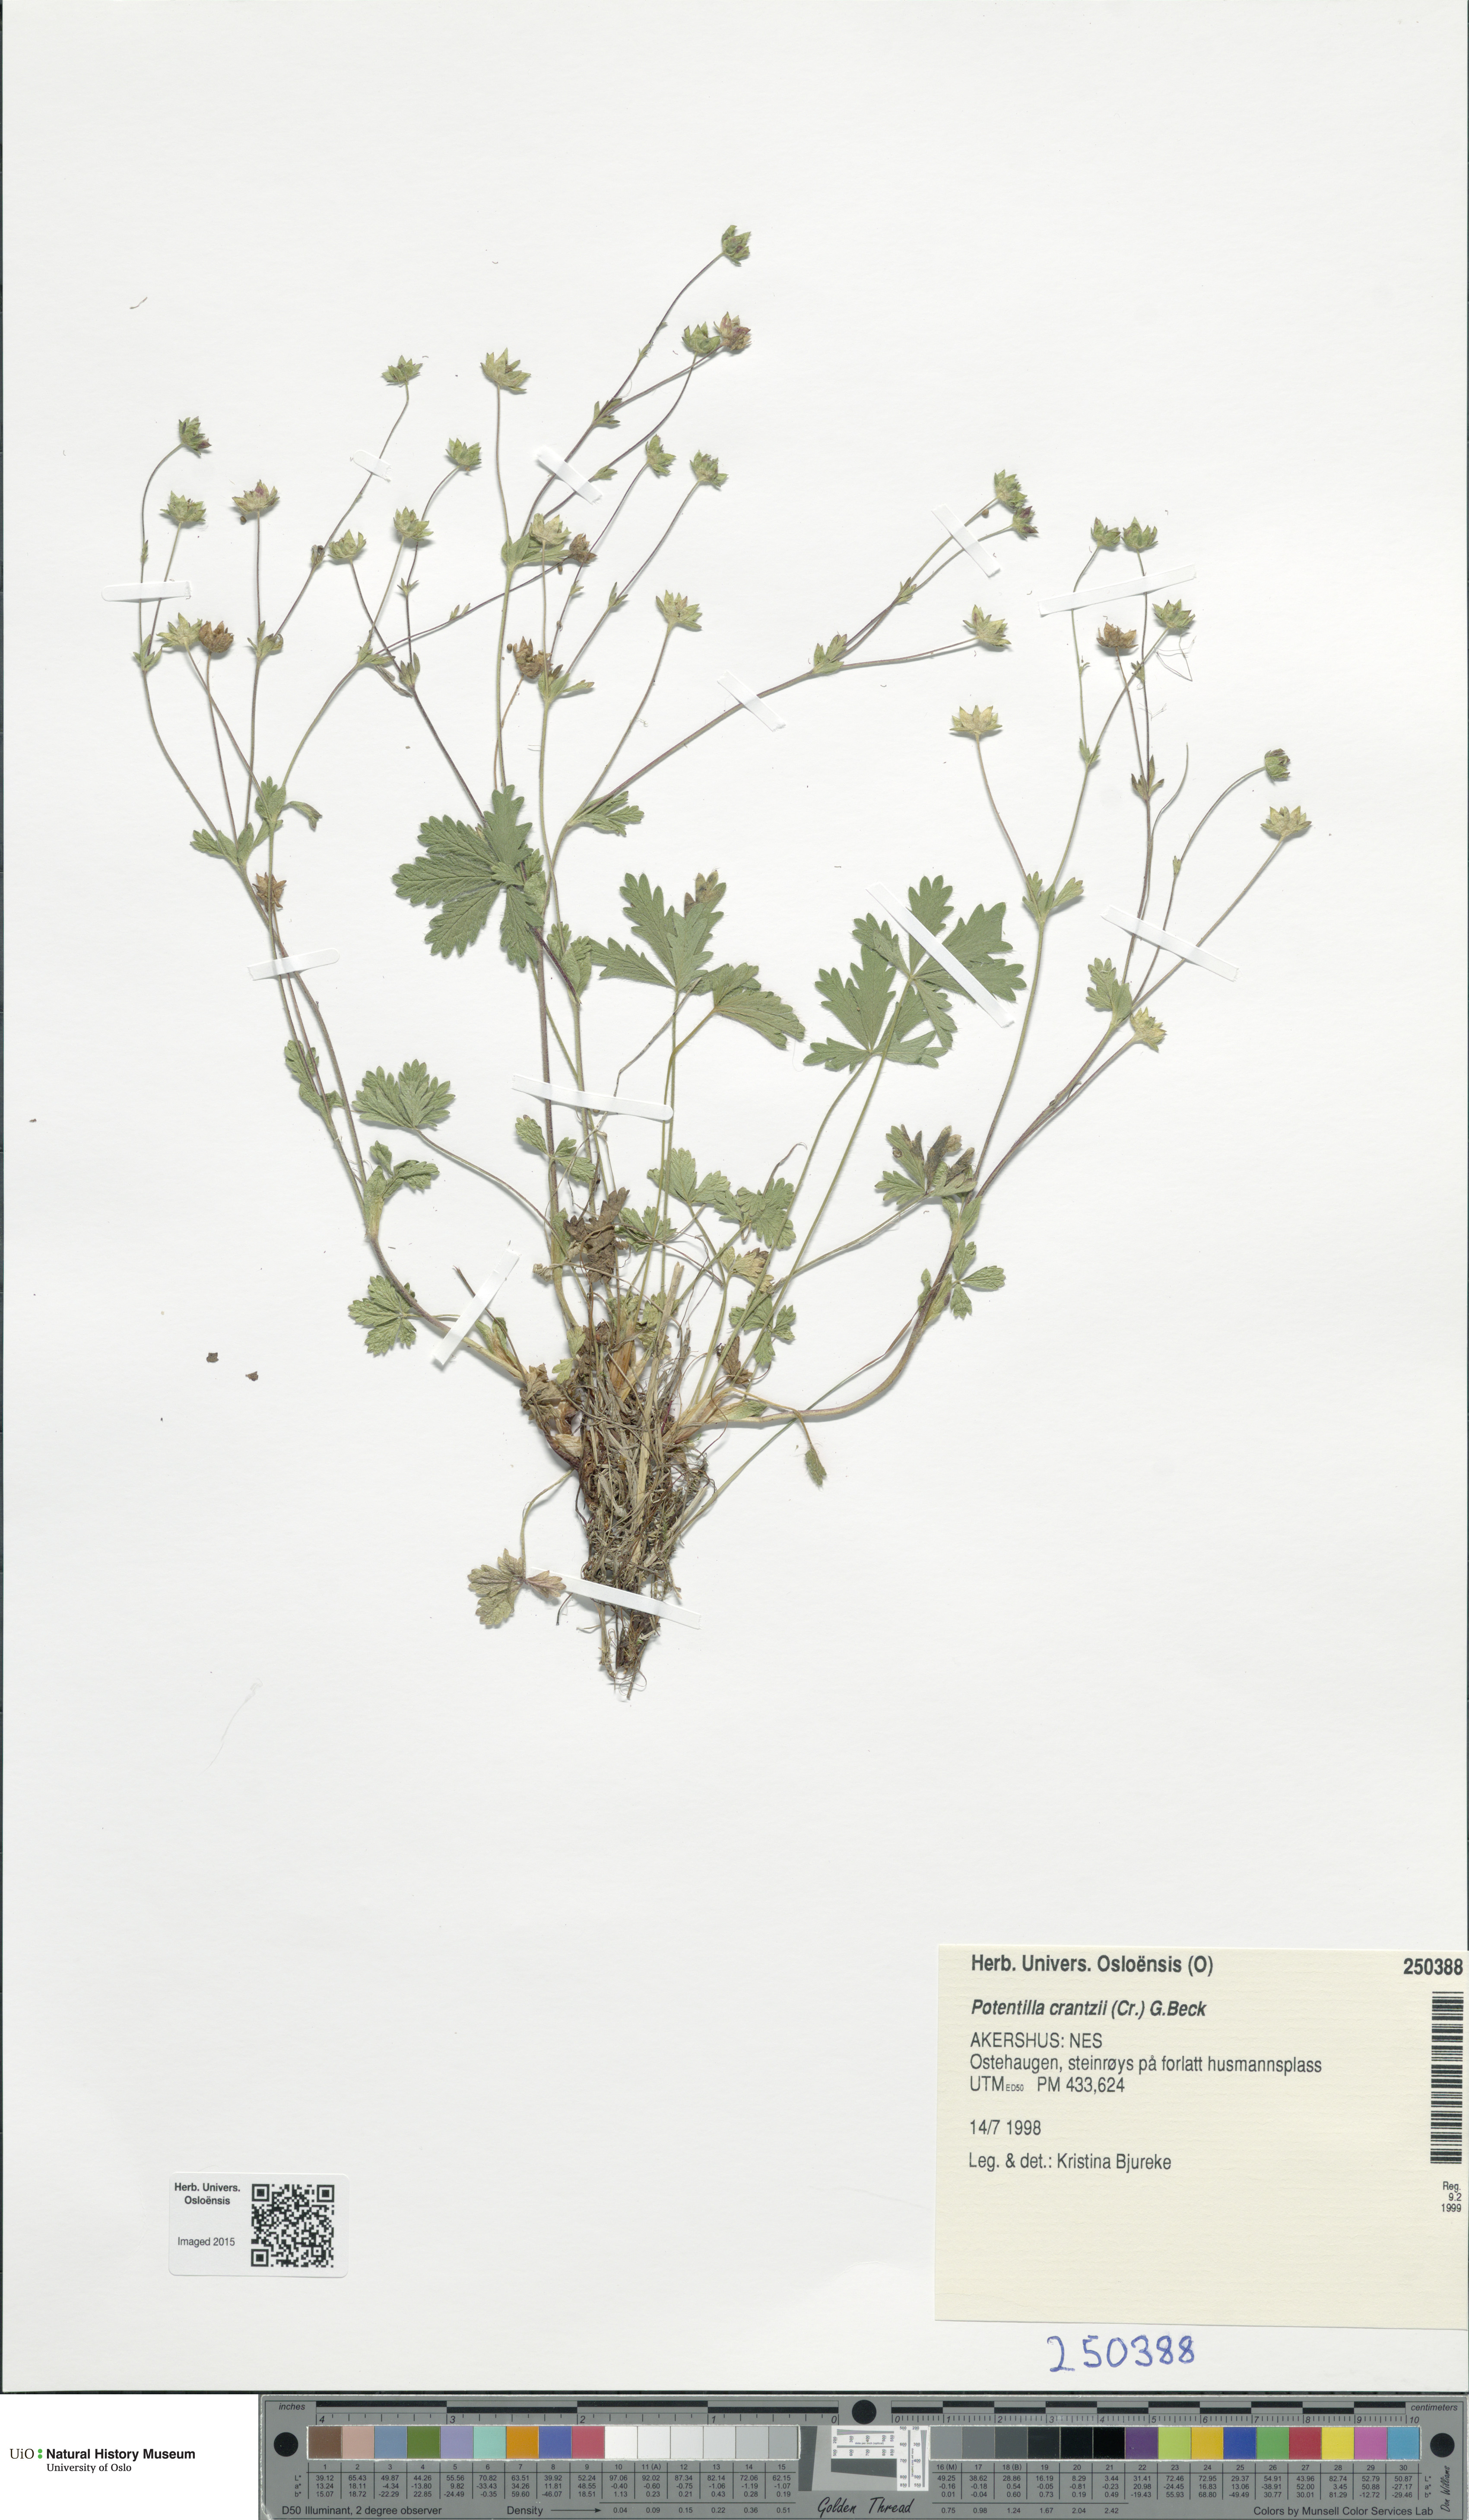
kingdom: Plantae
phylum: Tracheophyta
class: Magnoliopsida
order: Rosales
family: Rosaceae
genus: Potentilla
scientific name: Potentilla crantzii
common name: Alpine cinquefoil
